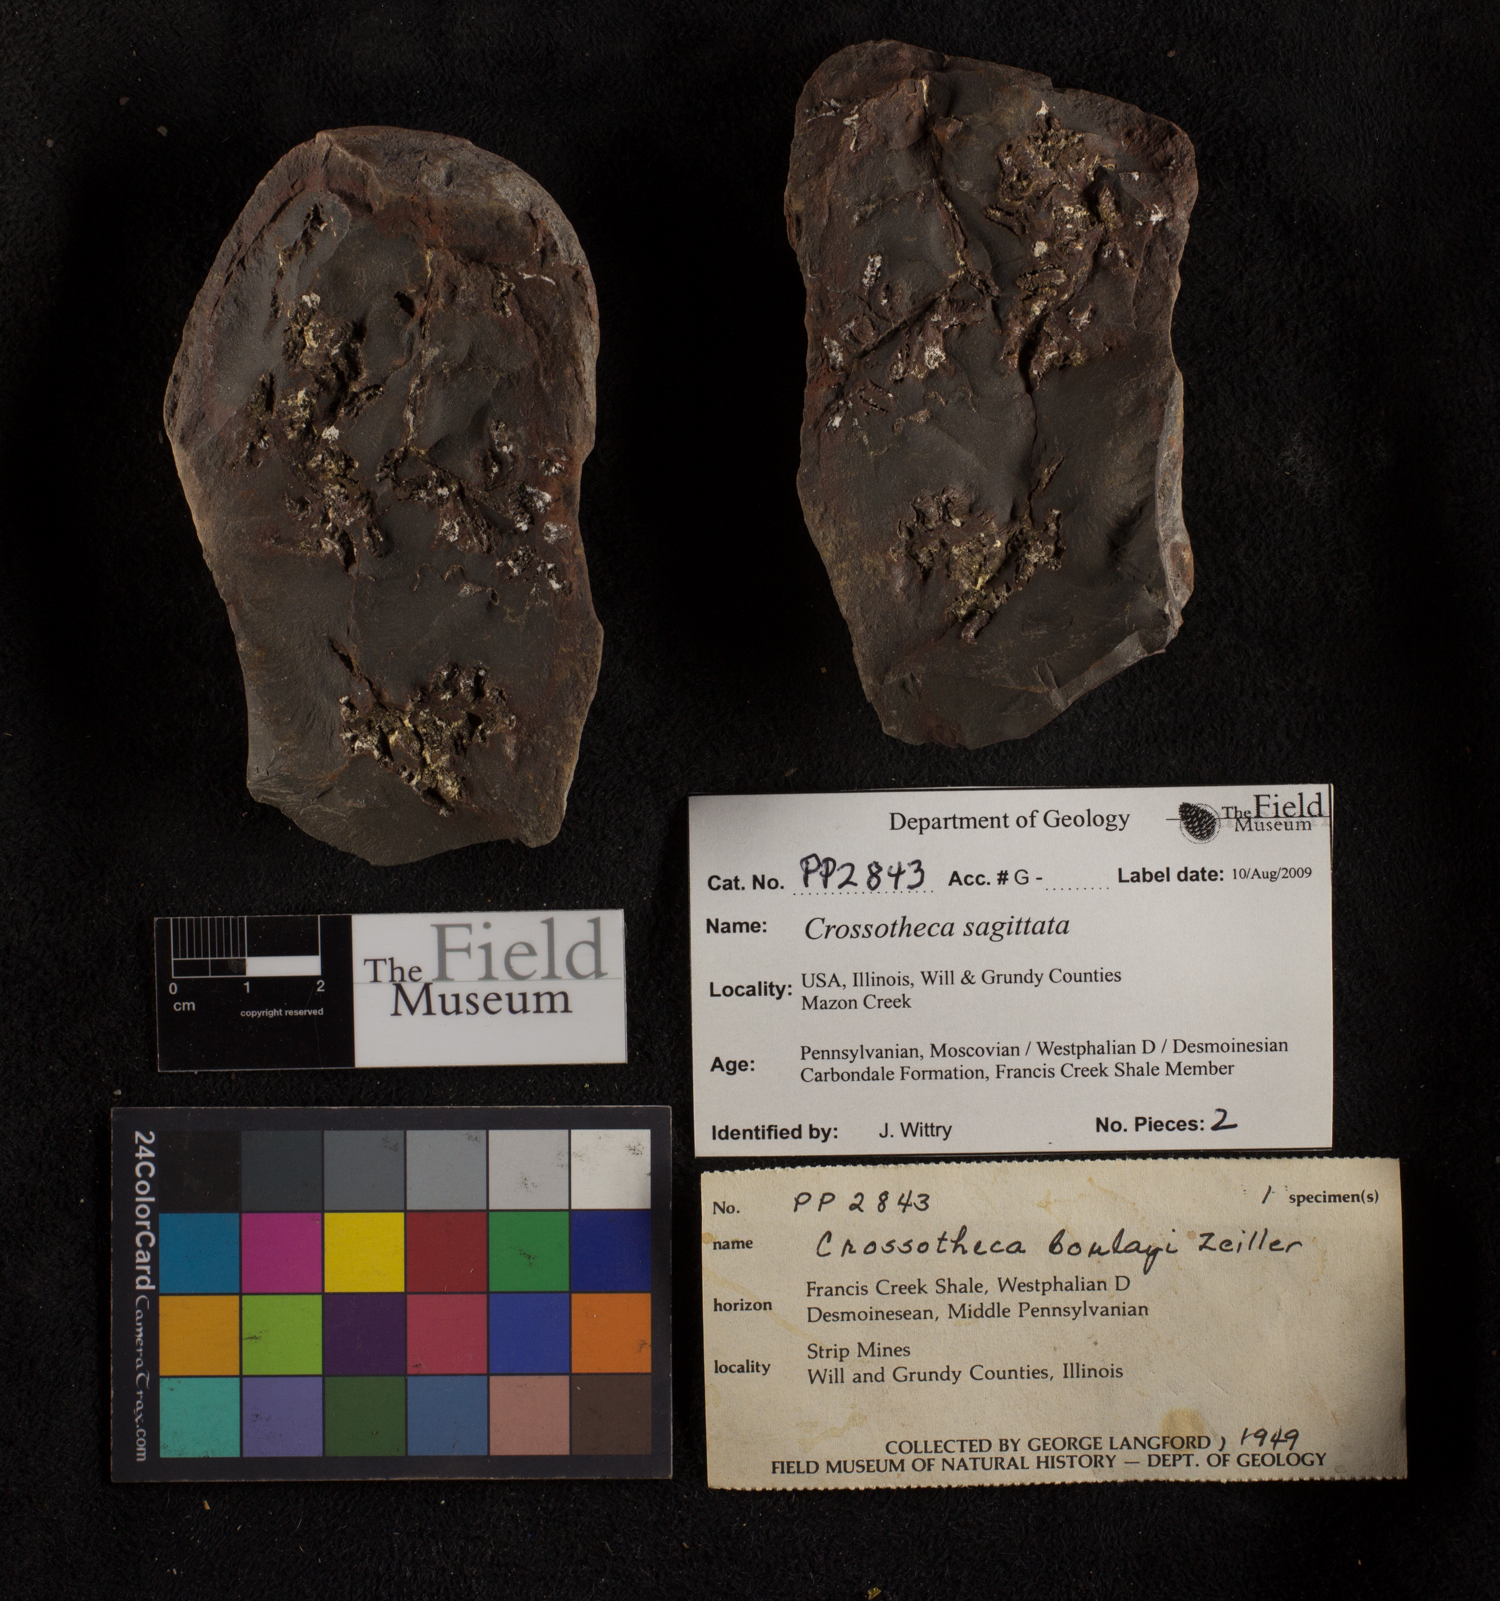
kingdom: Plantae
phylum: Tracheophyta
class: Polypodiopsida
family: Stauropteridaceae
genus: Crossotheca
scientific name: Crossotheca
